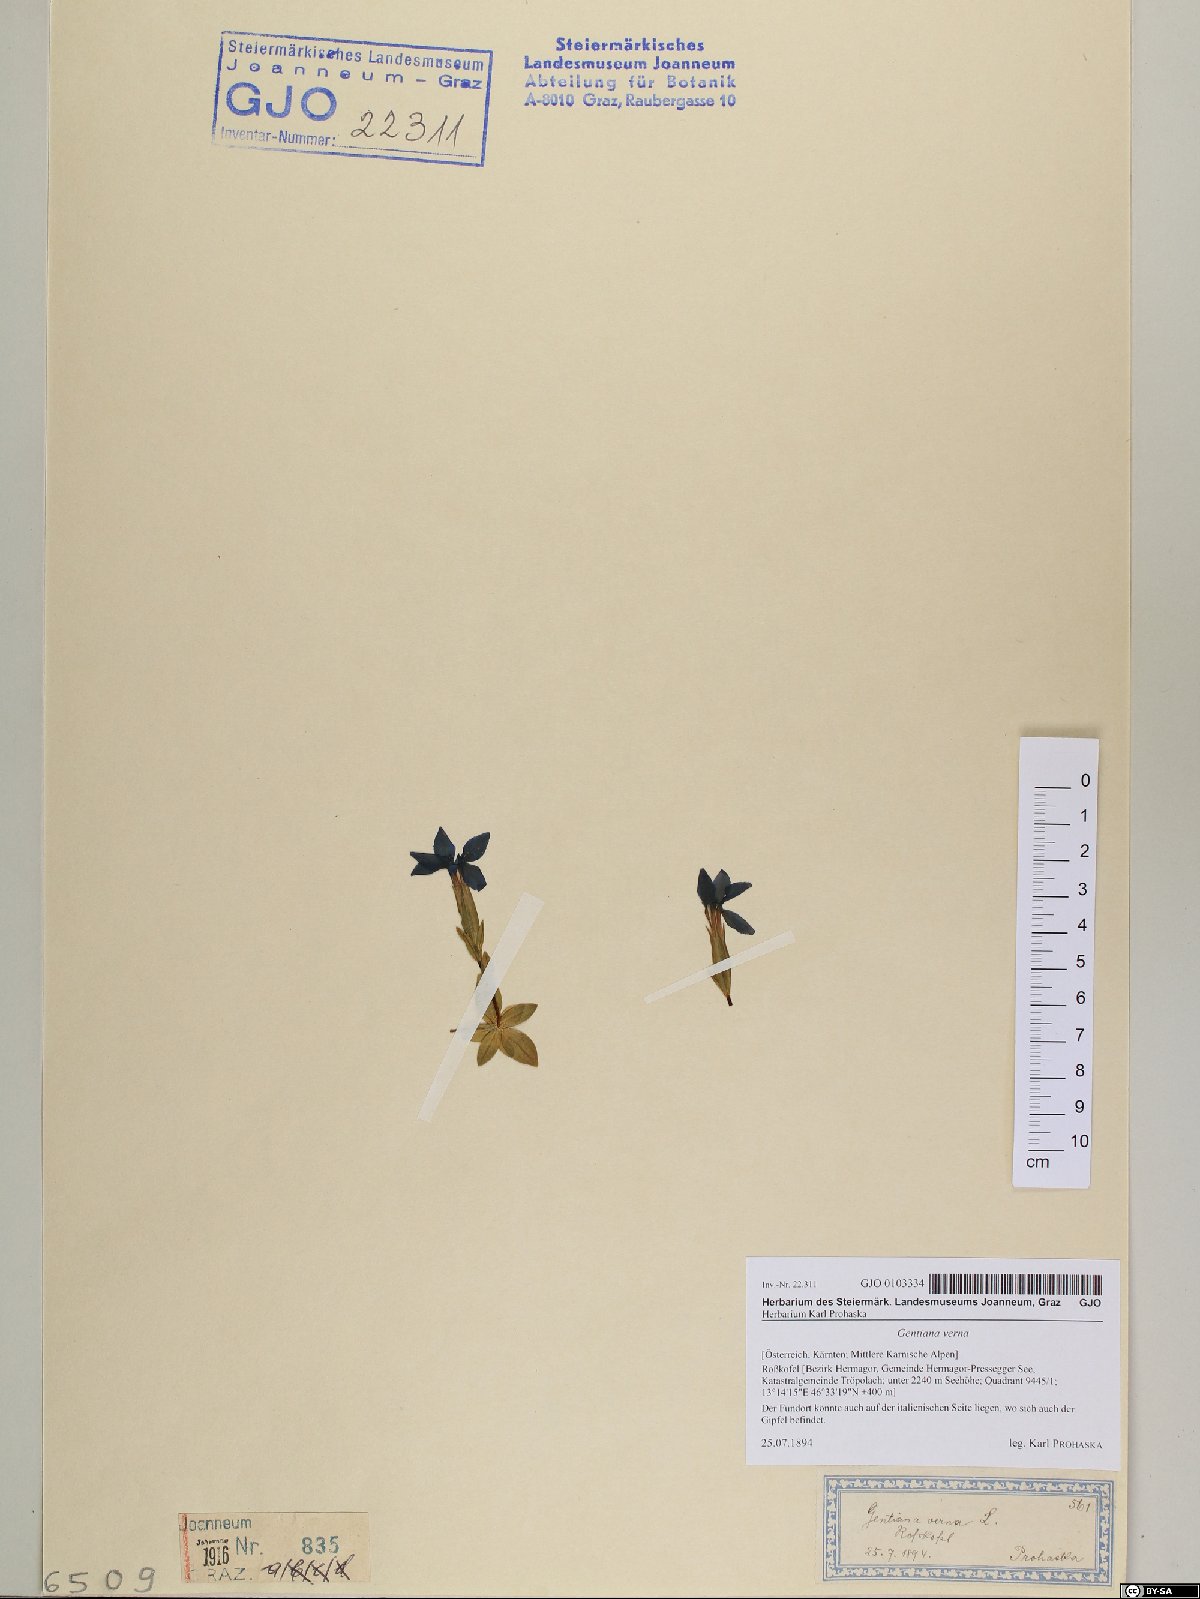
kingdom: Plantae
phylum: Tracheophyta
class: Magnoliopsida
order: Gentianales
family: Gentianaceae
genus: Gentiana
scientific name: Gentiana verna
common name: Spring gentian
